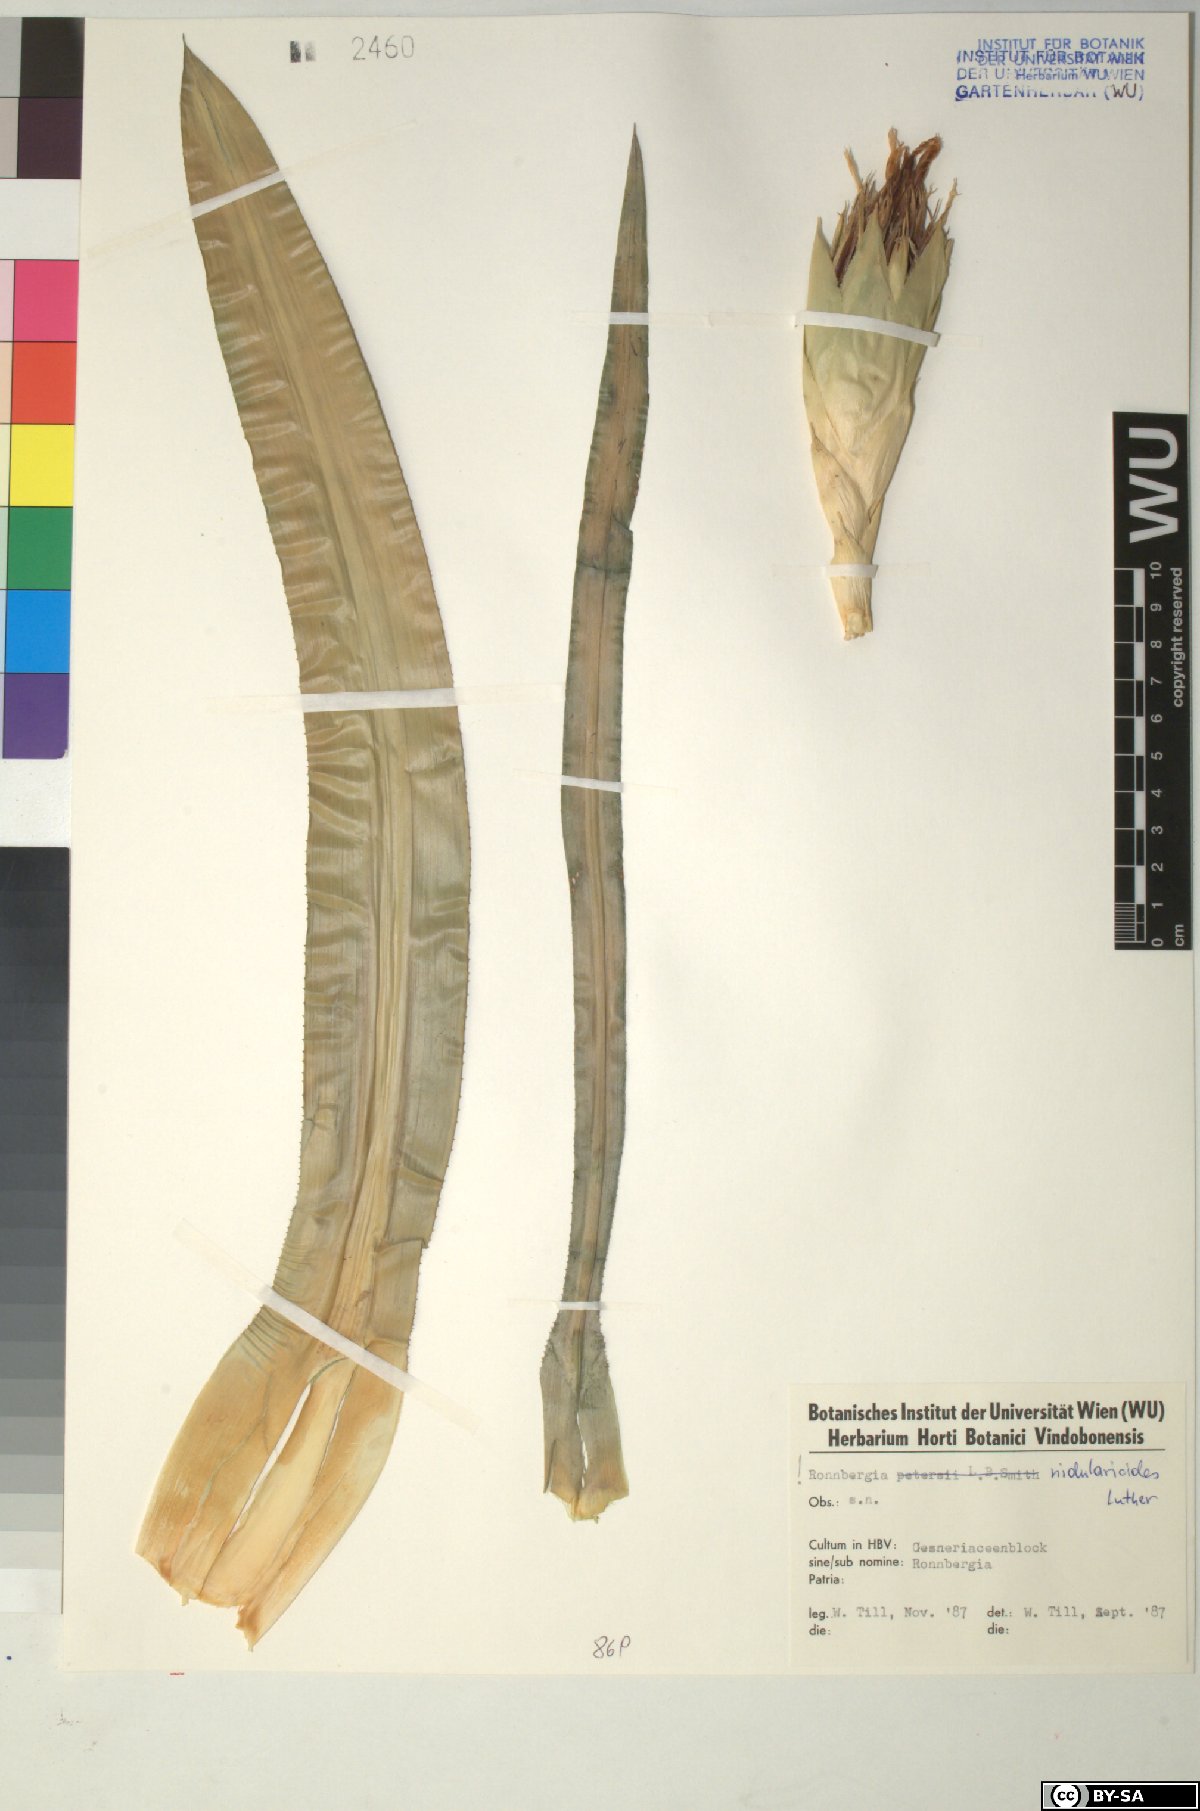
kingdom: Plantae
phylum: Tracheophyta
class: Liliopsida
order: Poales
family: Bromeliaceae
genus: Ronnbergia
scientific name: Ronnbergia aciculosa
